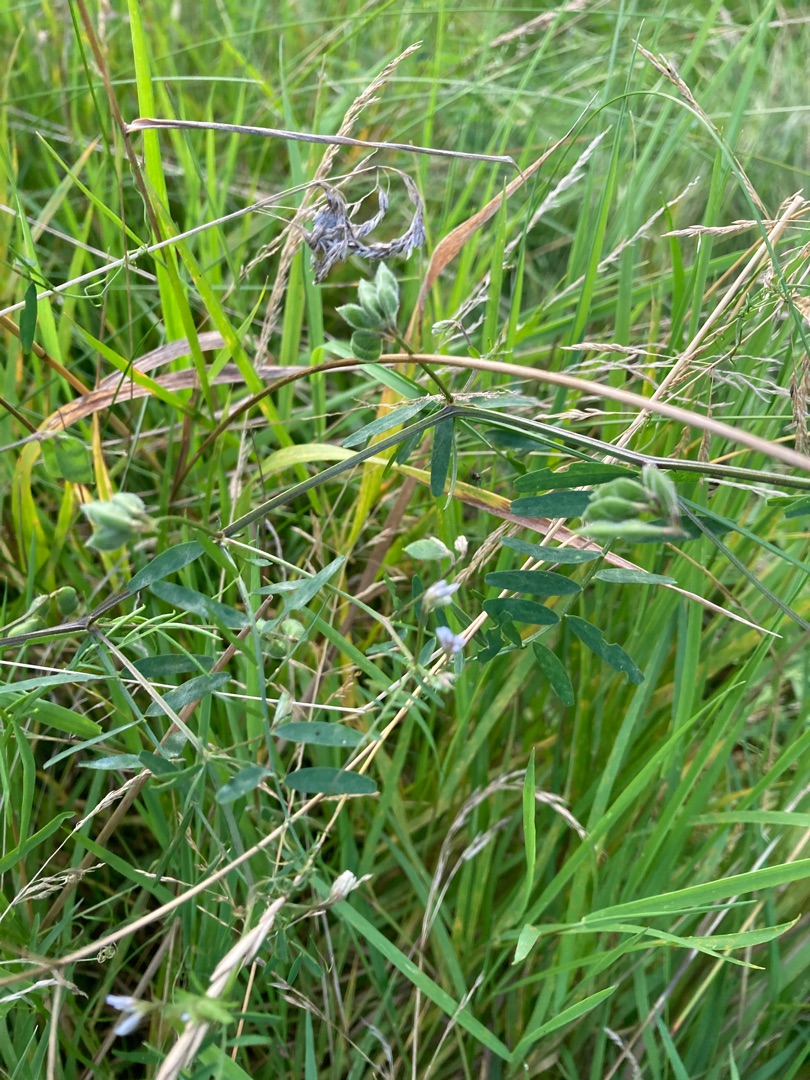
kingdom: Plantae
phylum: Tracheophyta
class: Magnoliopsida
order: Fabales
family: Fabaceae
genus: Vicia
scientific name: Vicia hirsuta
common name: Tofrøet vikke
